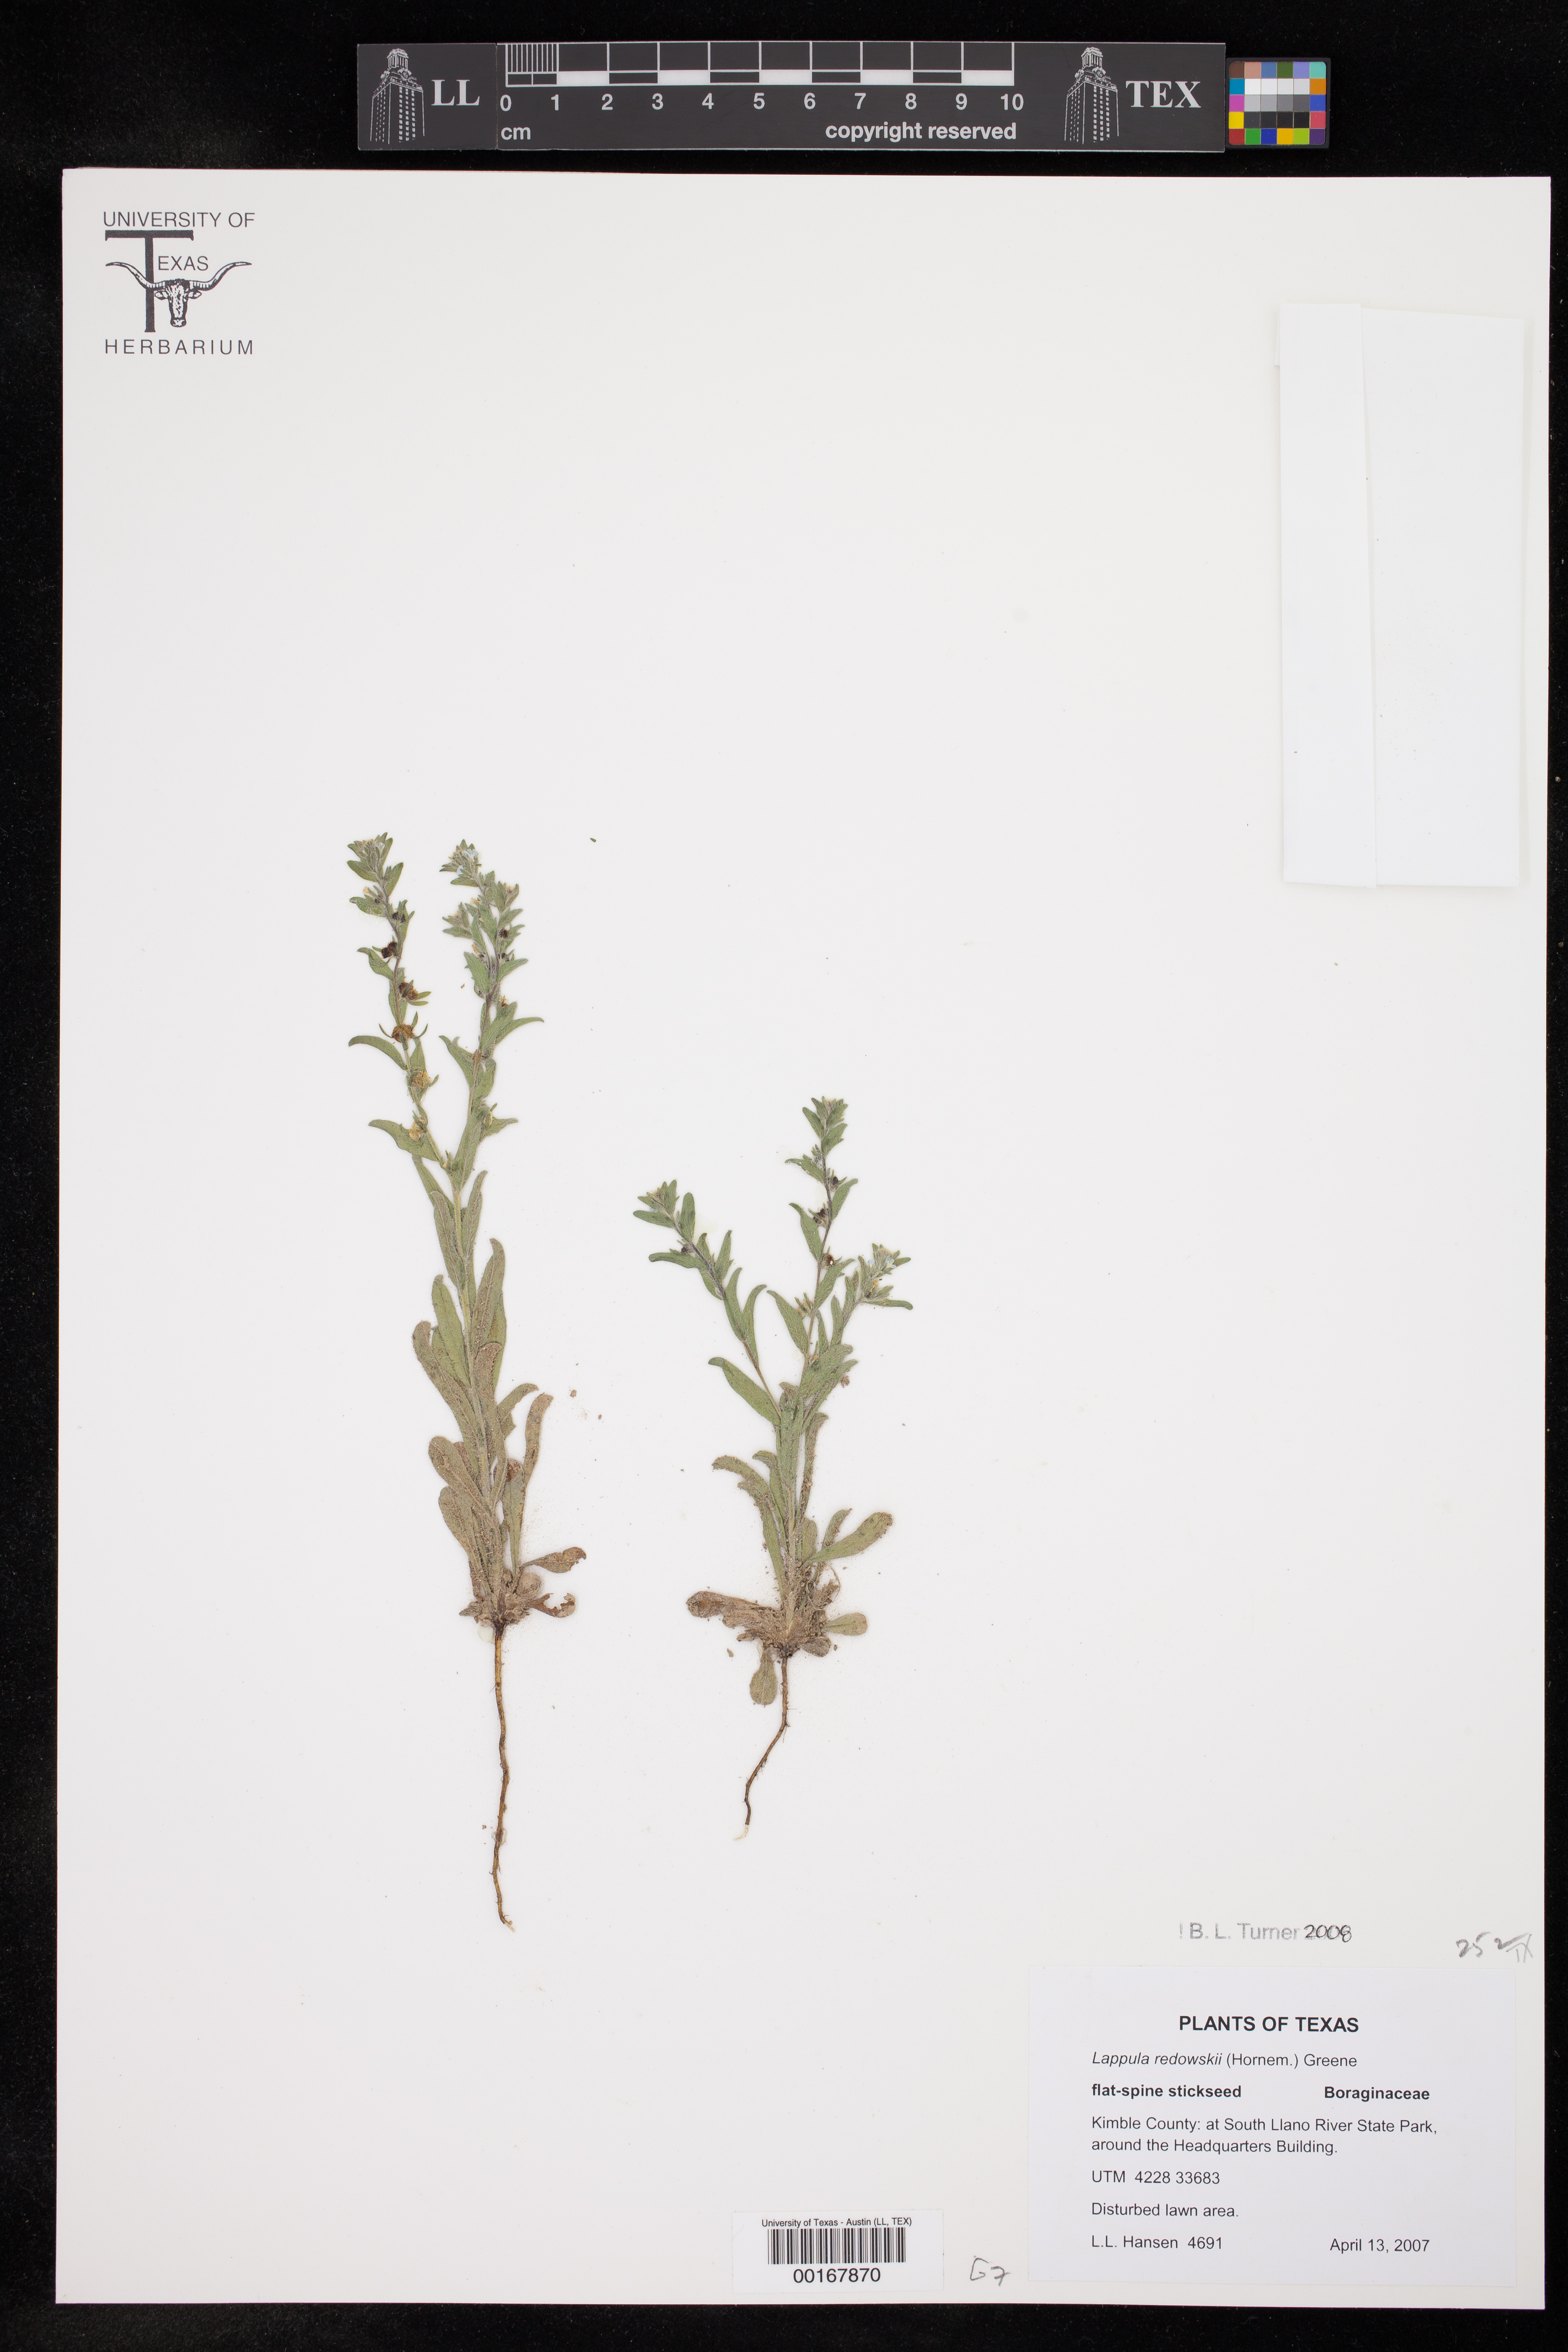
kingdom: Plantae
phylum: Tracheophyta
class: Magnoliopsida
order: Boraginales
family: Boraginaceae
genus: Lappula
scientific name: Lappula redowskii
